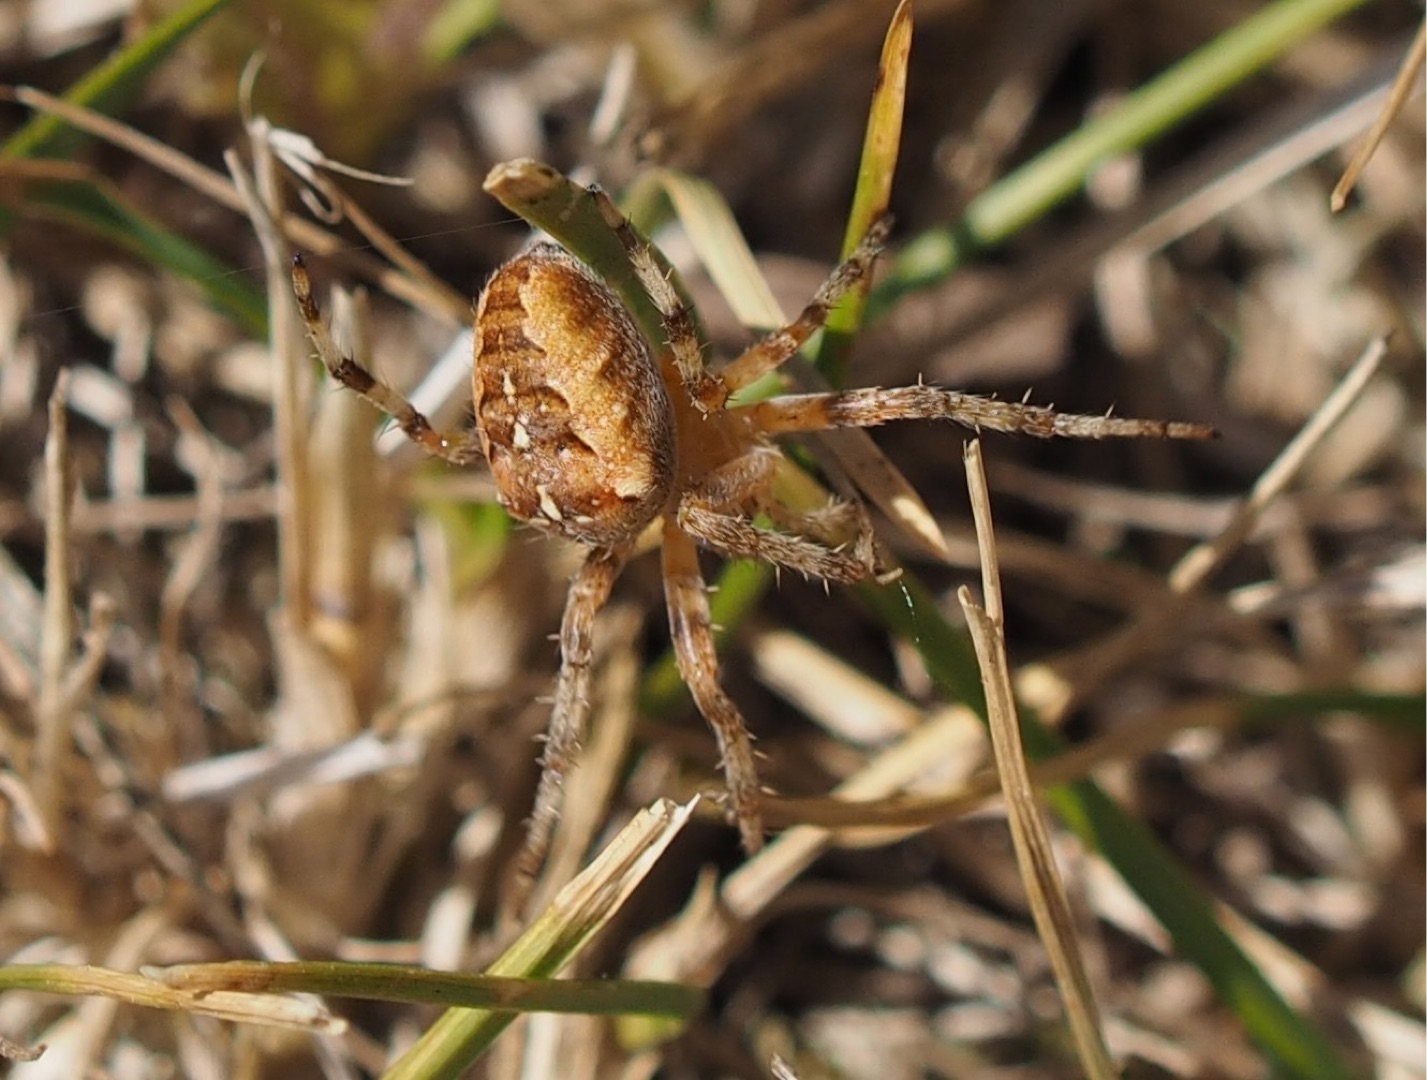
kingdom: Animalia
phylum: Arthropoda
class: Arachnida
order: Araneae
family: Araneidae
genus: Araneus
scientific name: Araneus diadematus
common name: Korsedderkop
